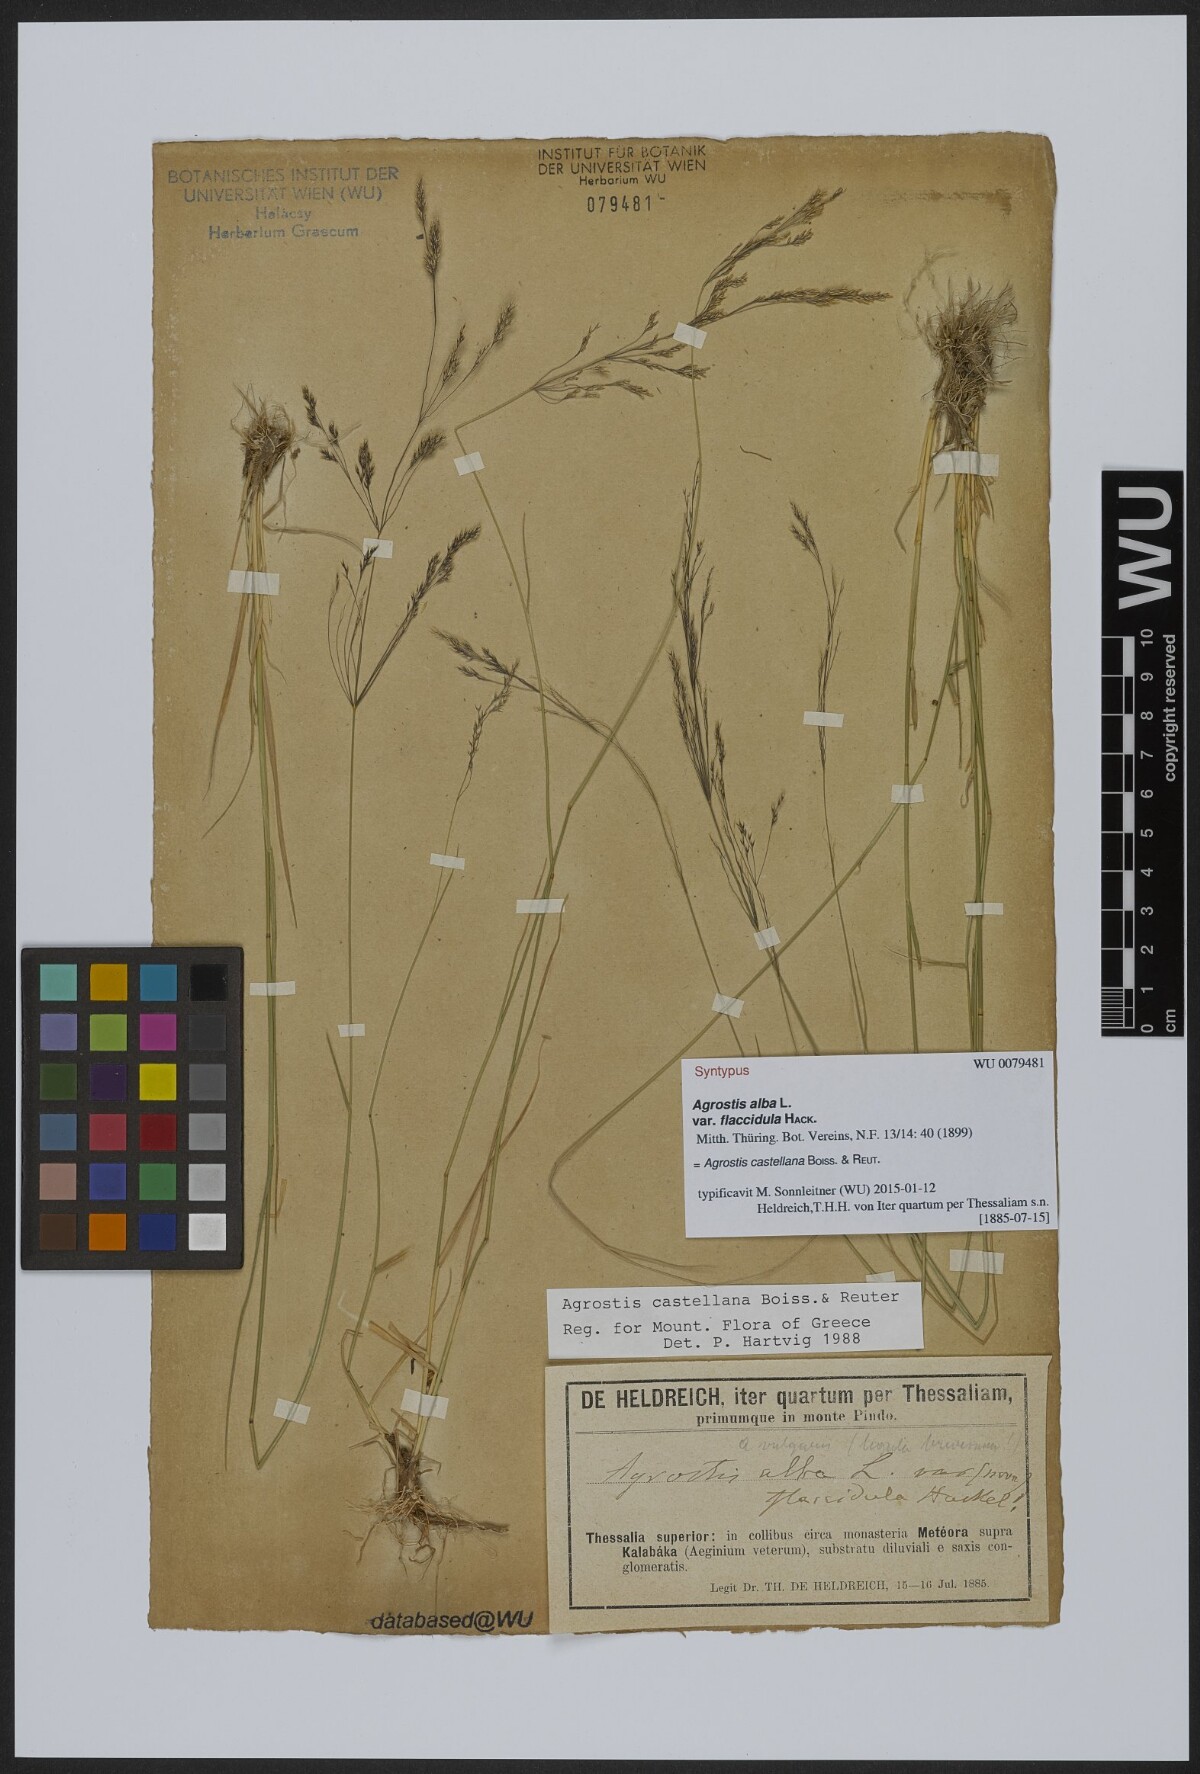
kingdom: Plantae
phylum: Tracheophyta
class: Liliopsida
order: Poales
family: Poaceae
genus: Agrostis
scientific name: Agrostis alba
